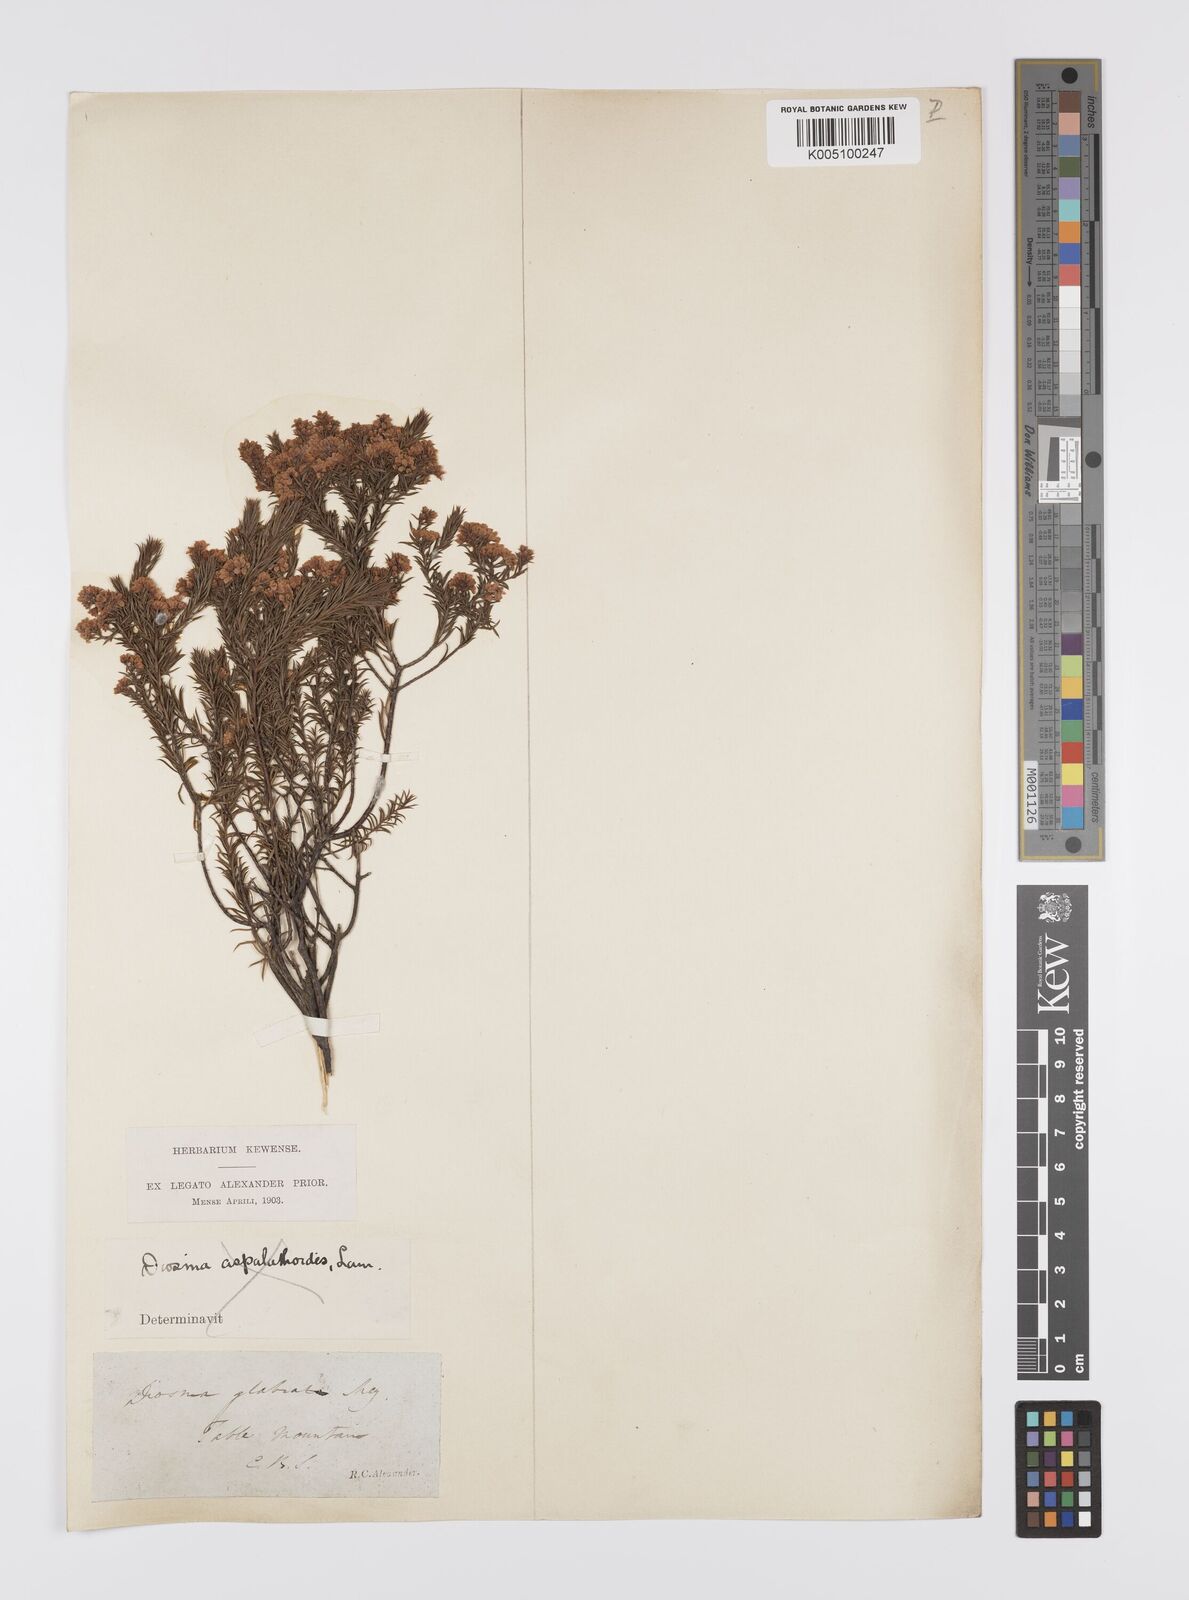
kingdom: Plantae
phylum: Tracheophyta
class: Magnoliopsida
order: Sapindales
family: Rutaceae
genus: Diosma
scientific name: Diosma hirsuta
